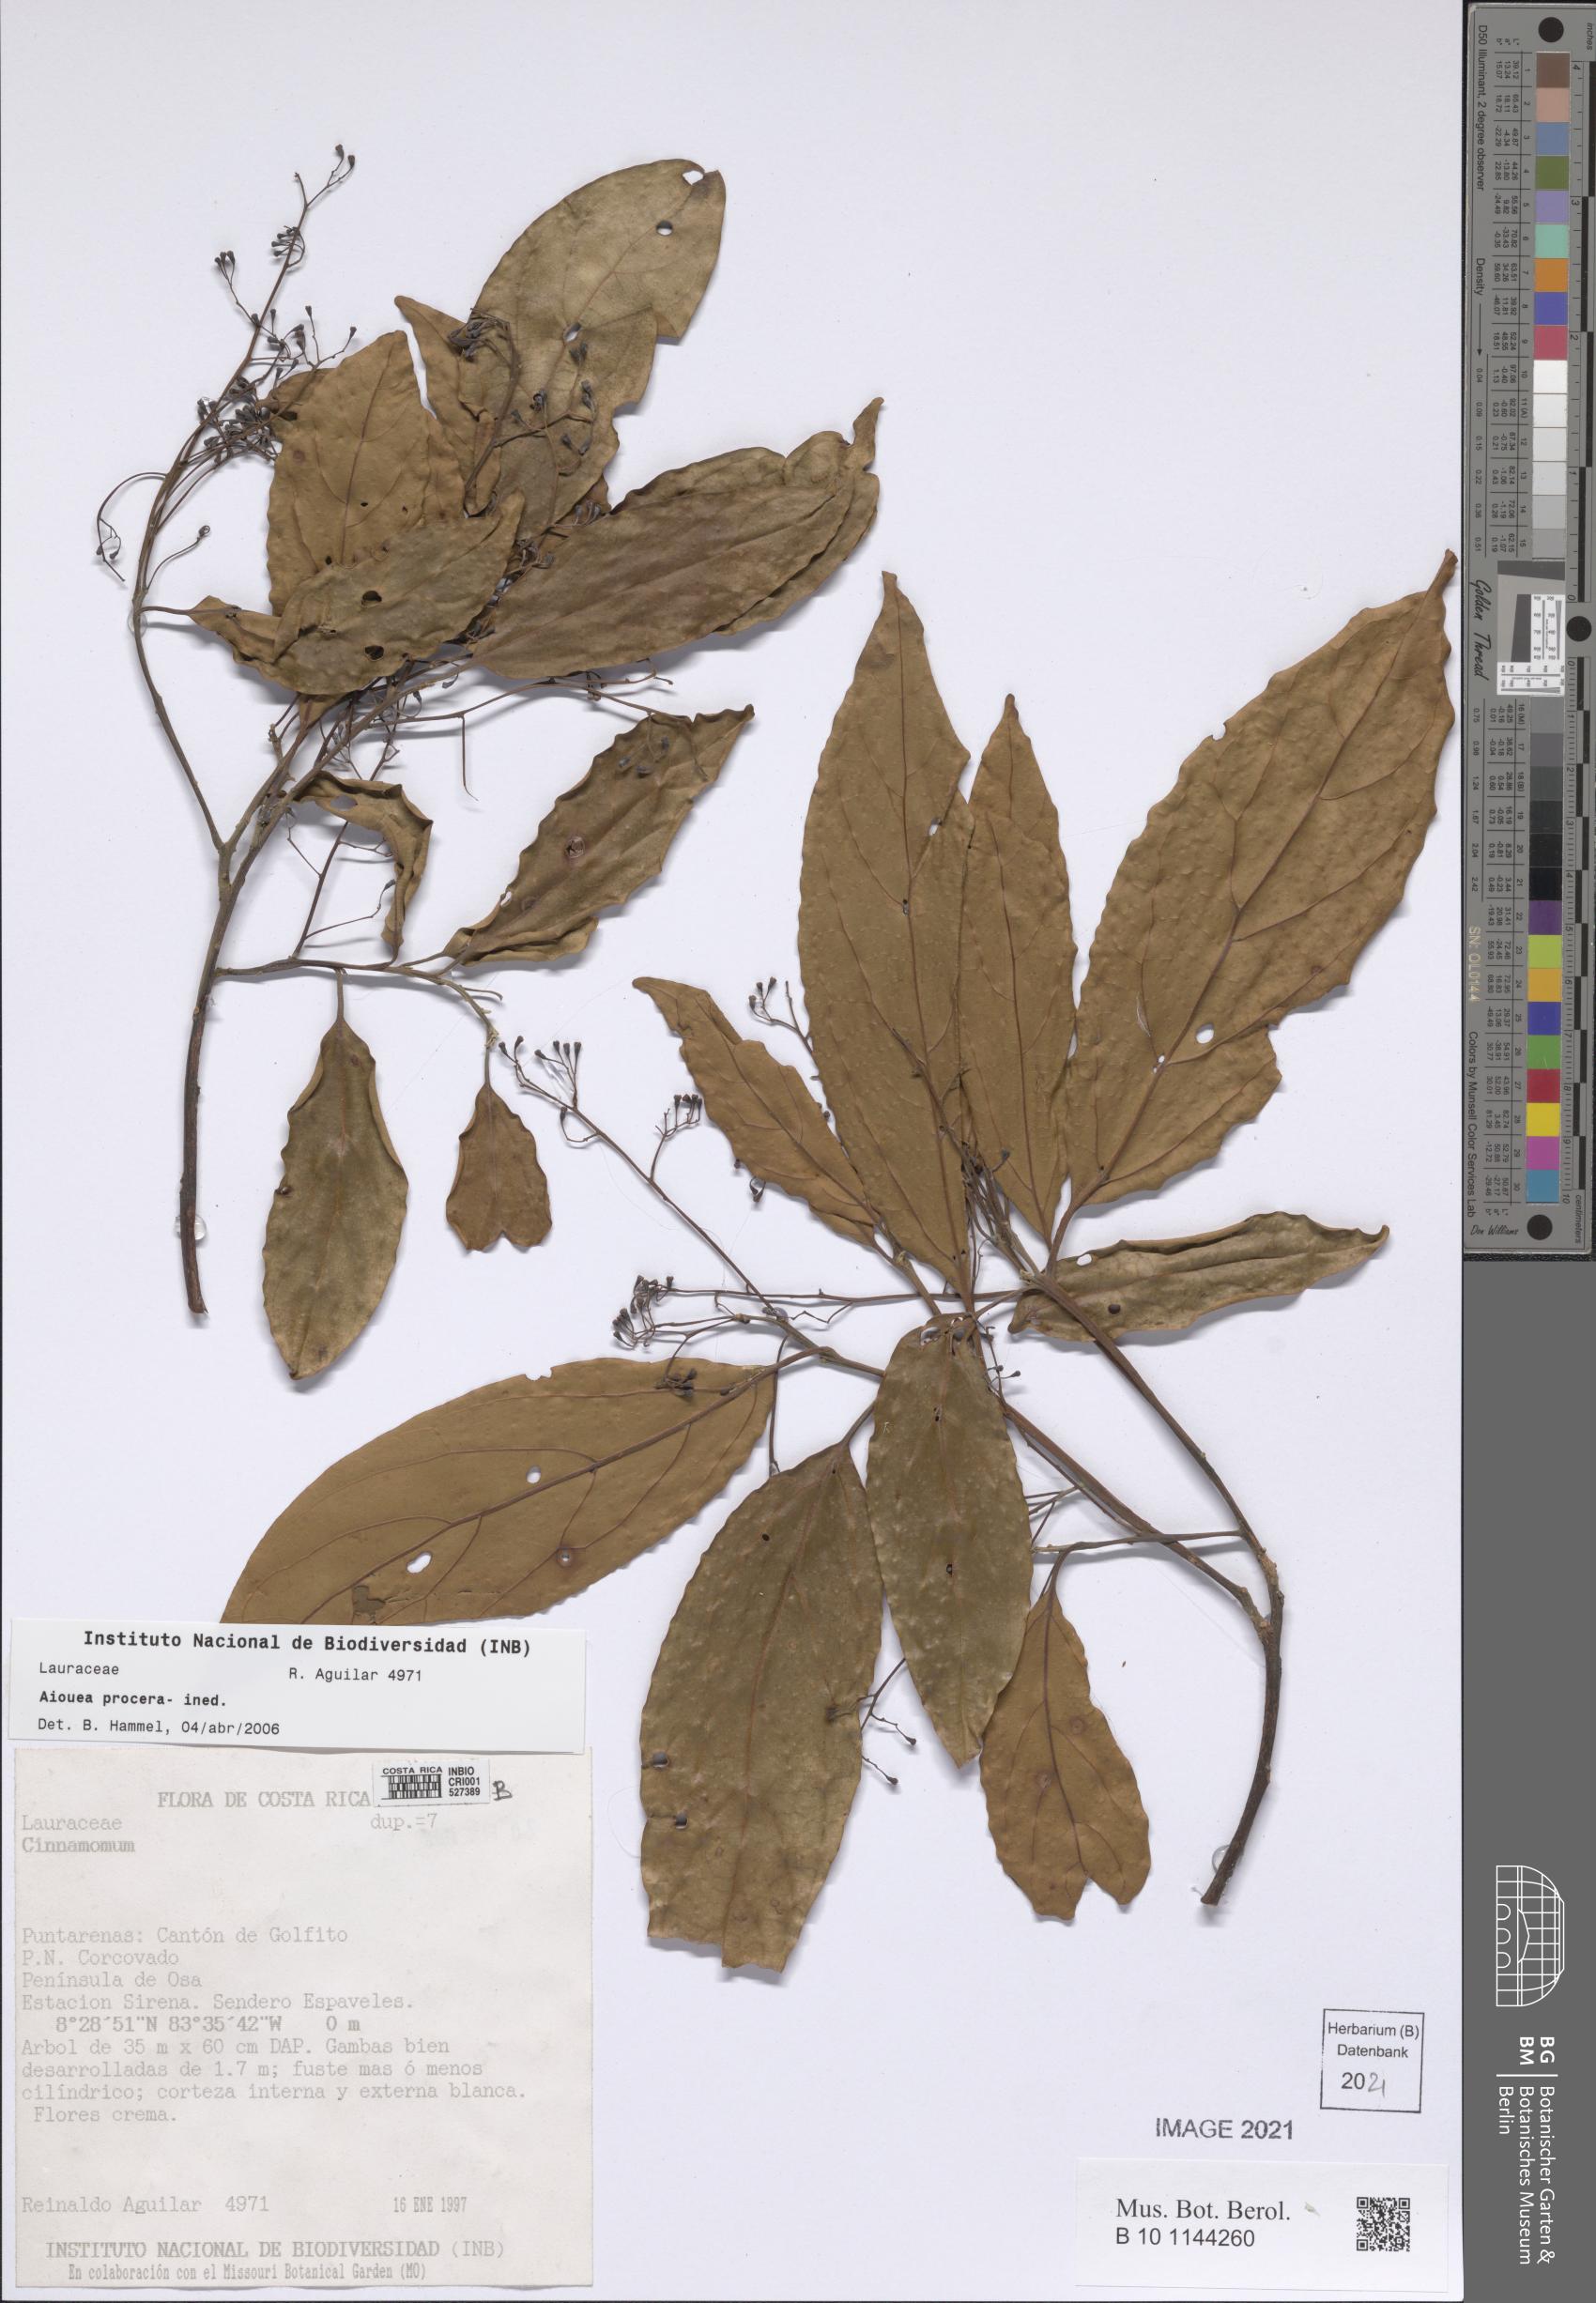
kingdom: Plantae
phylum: Tracheophyta
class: Magnoliopsida
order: Laurales
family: Lauraceae
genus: Aiouea
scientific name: Aiouea
